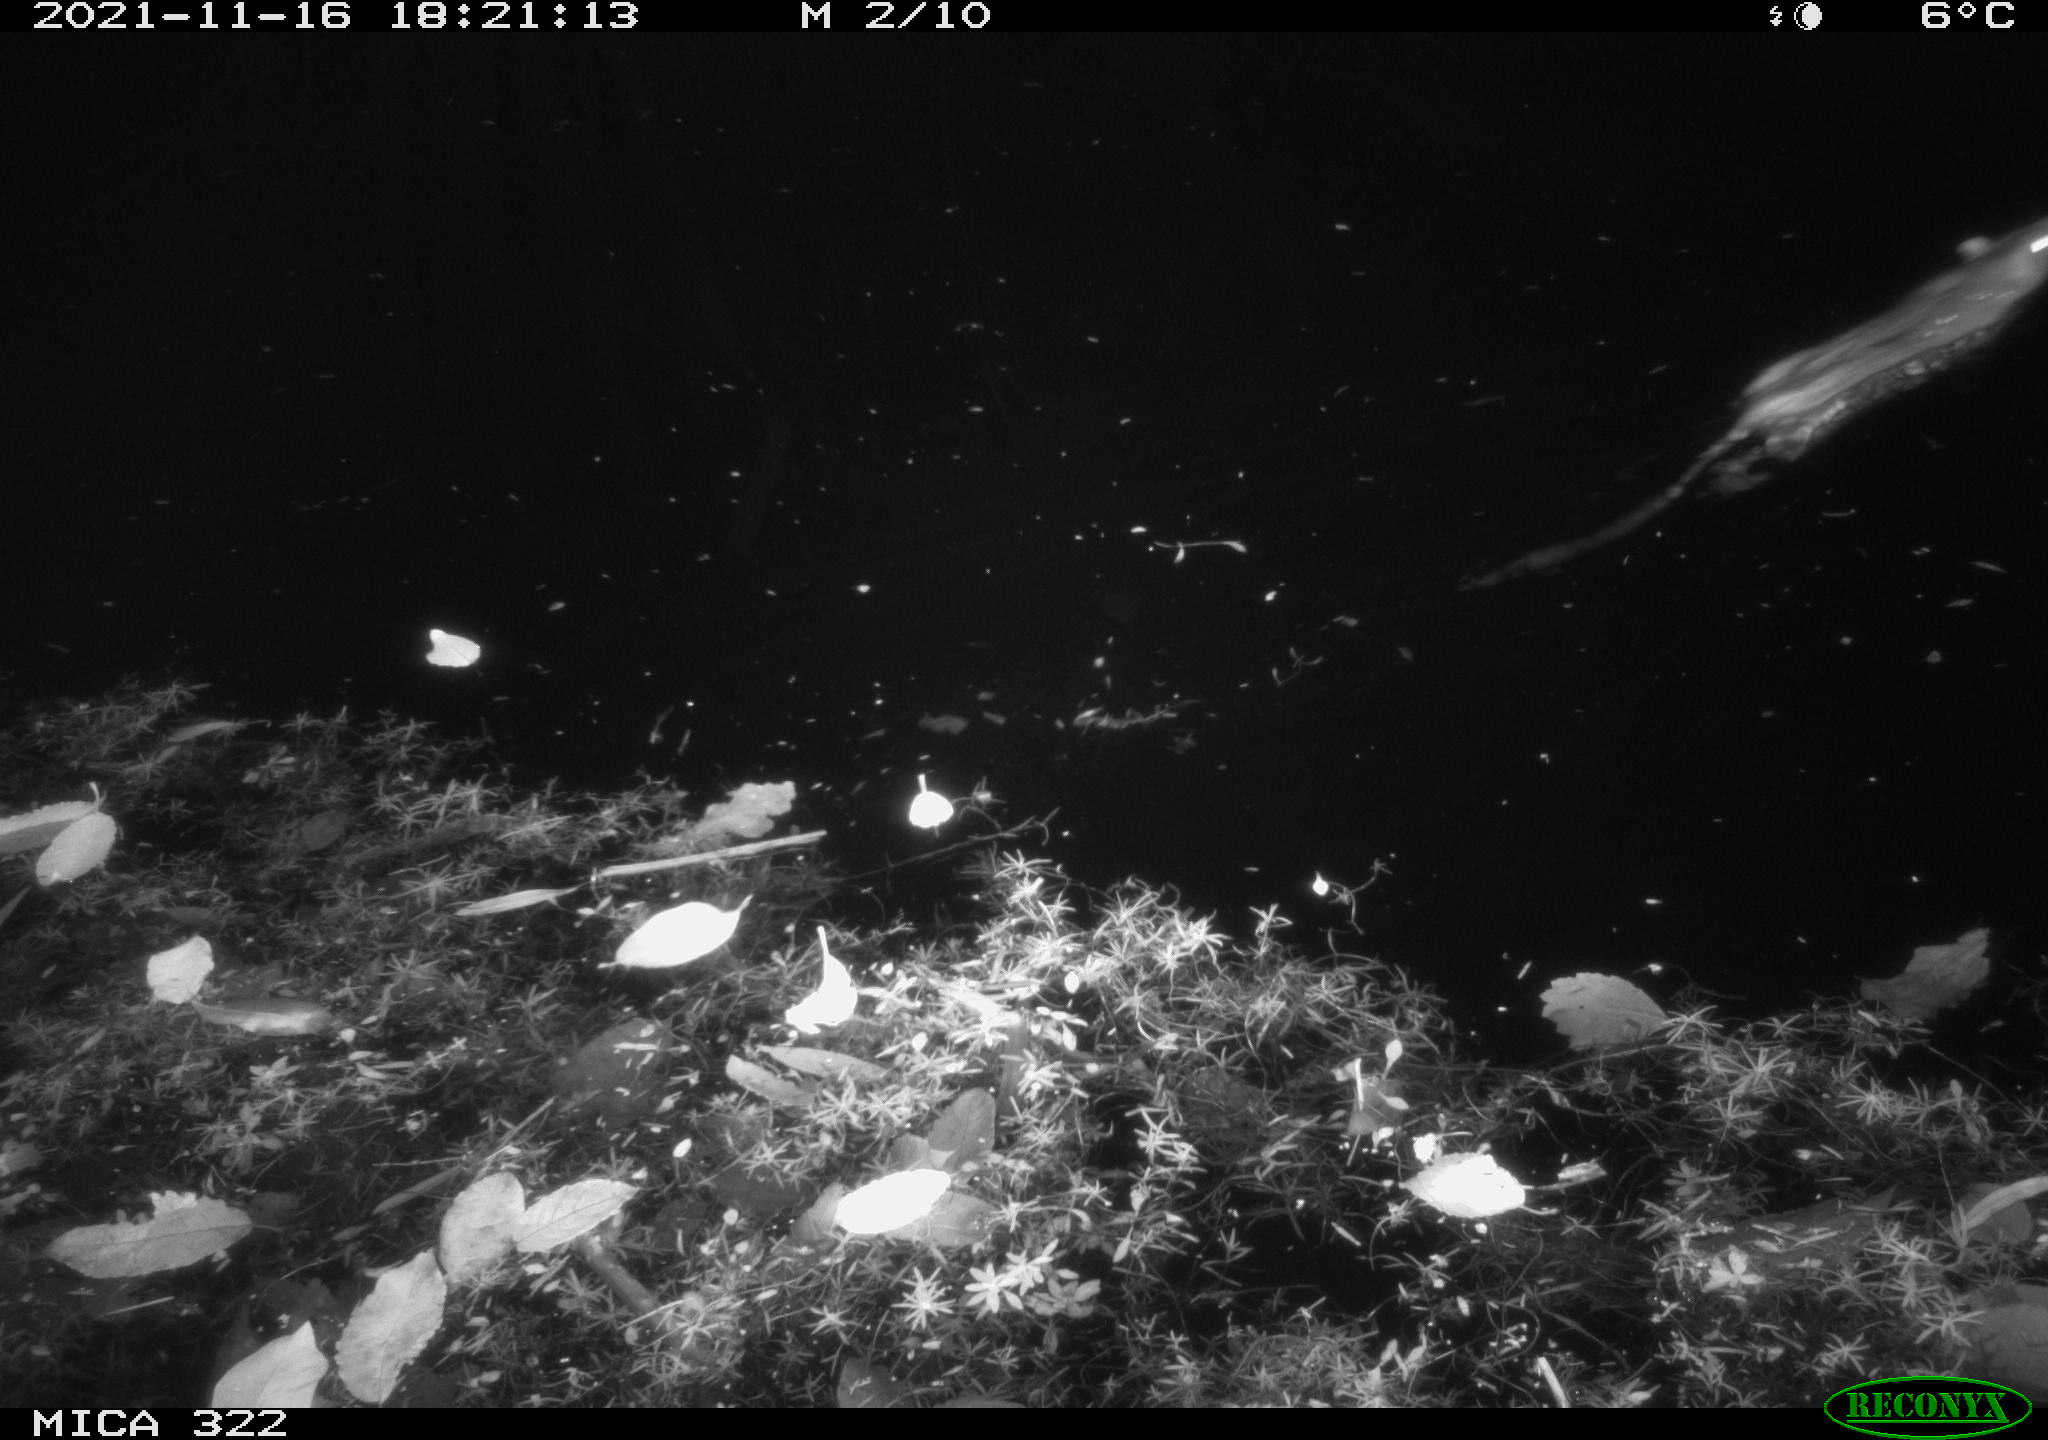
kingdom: Animalia
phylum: Chordata
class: Mammalia
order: Rodentia
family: Muridae
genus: Rattus
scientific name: Rattus norvegicus
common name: Brown rat
